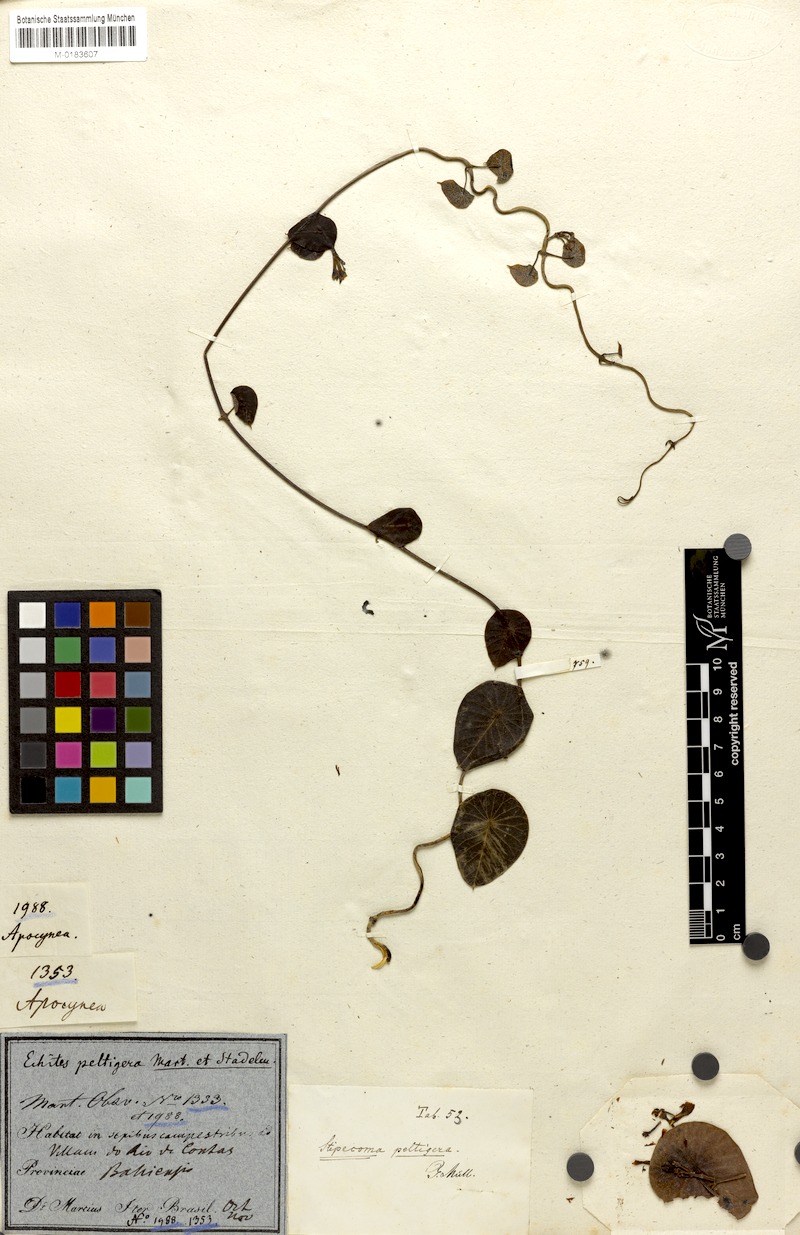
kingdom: Plantae
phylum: Tracheophyta
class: Magnoliopsida
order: Gentianales
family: Apocynaceae
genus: Stipecoma
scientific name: Stipecoma peltigera
